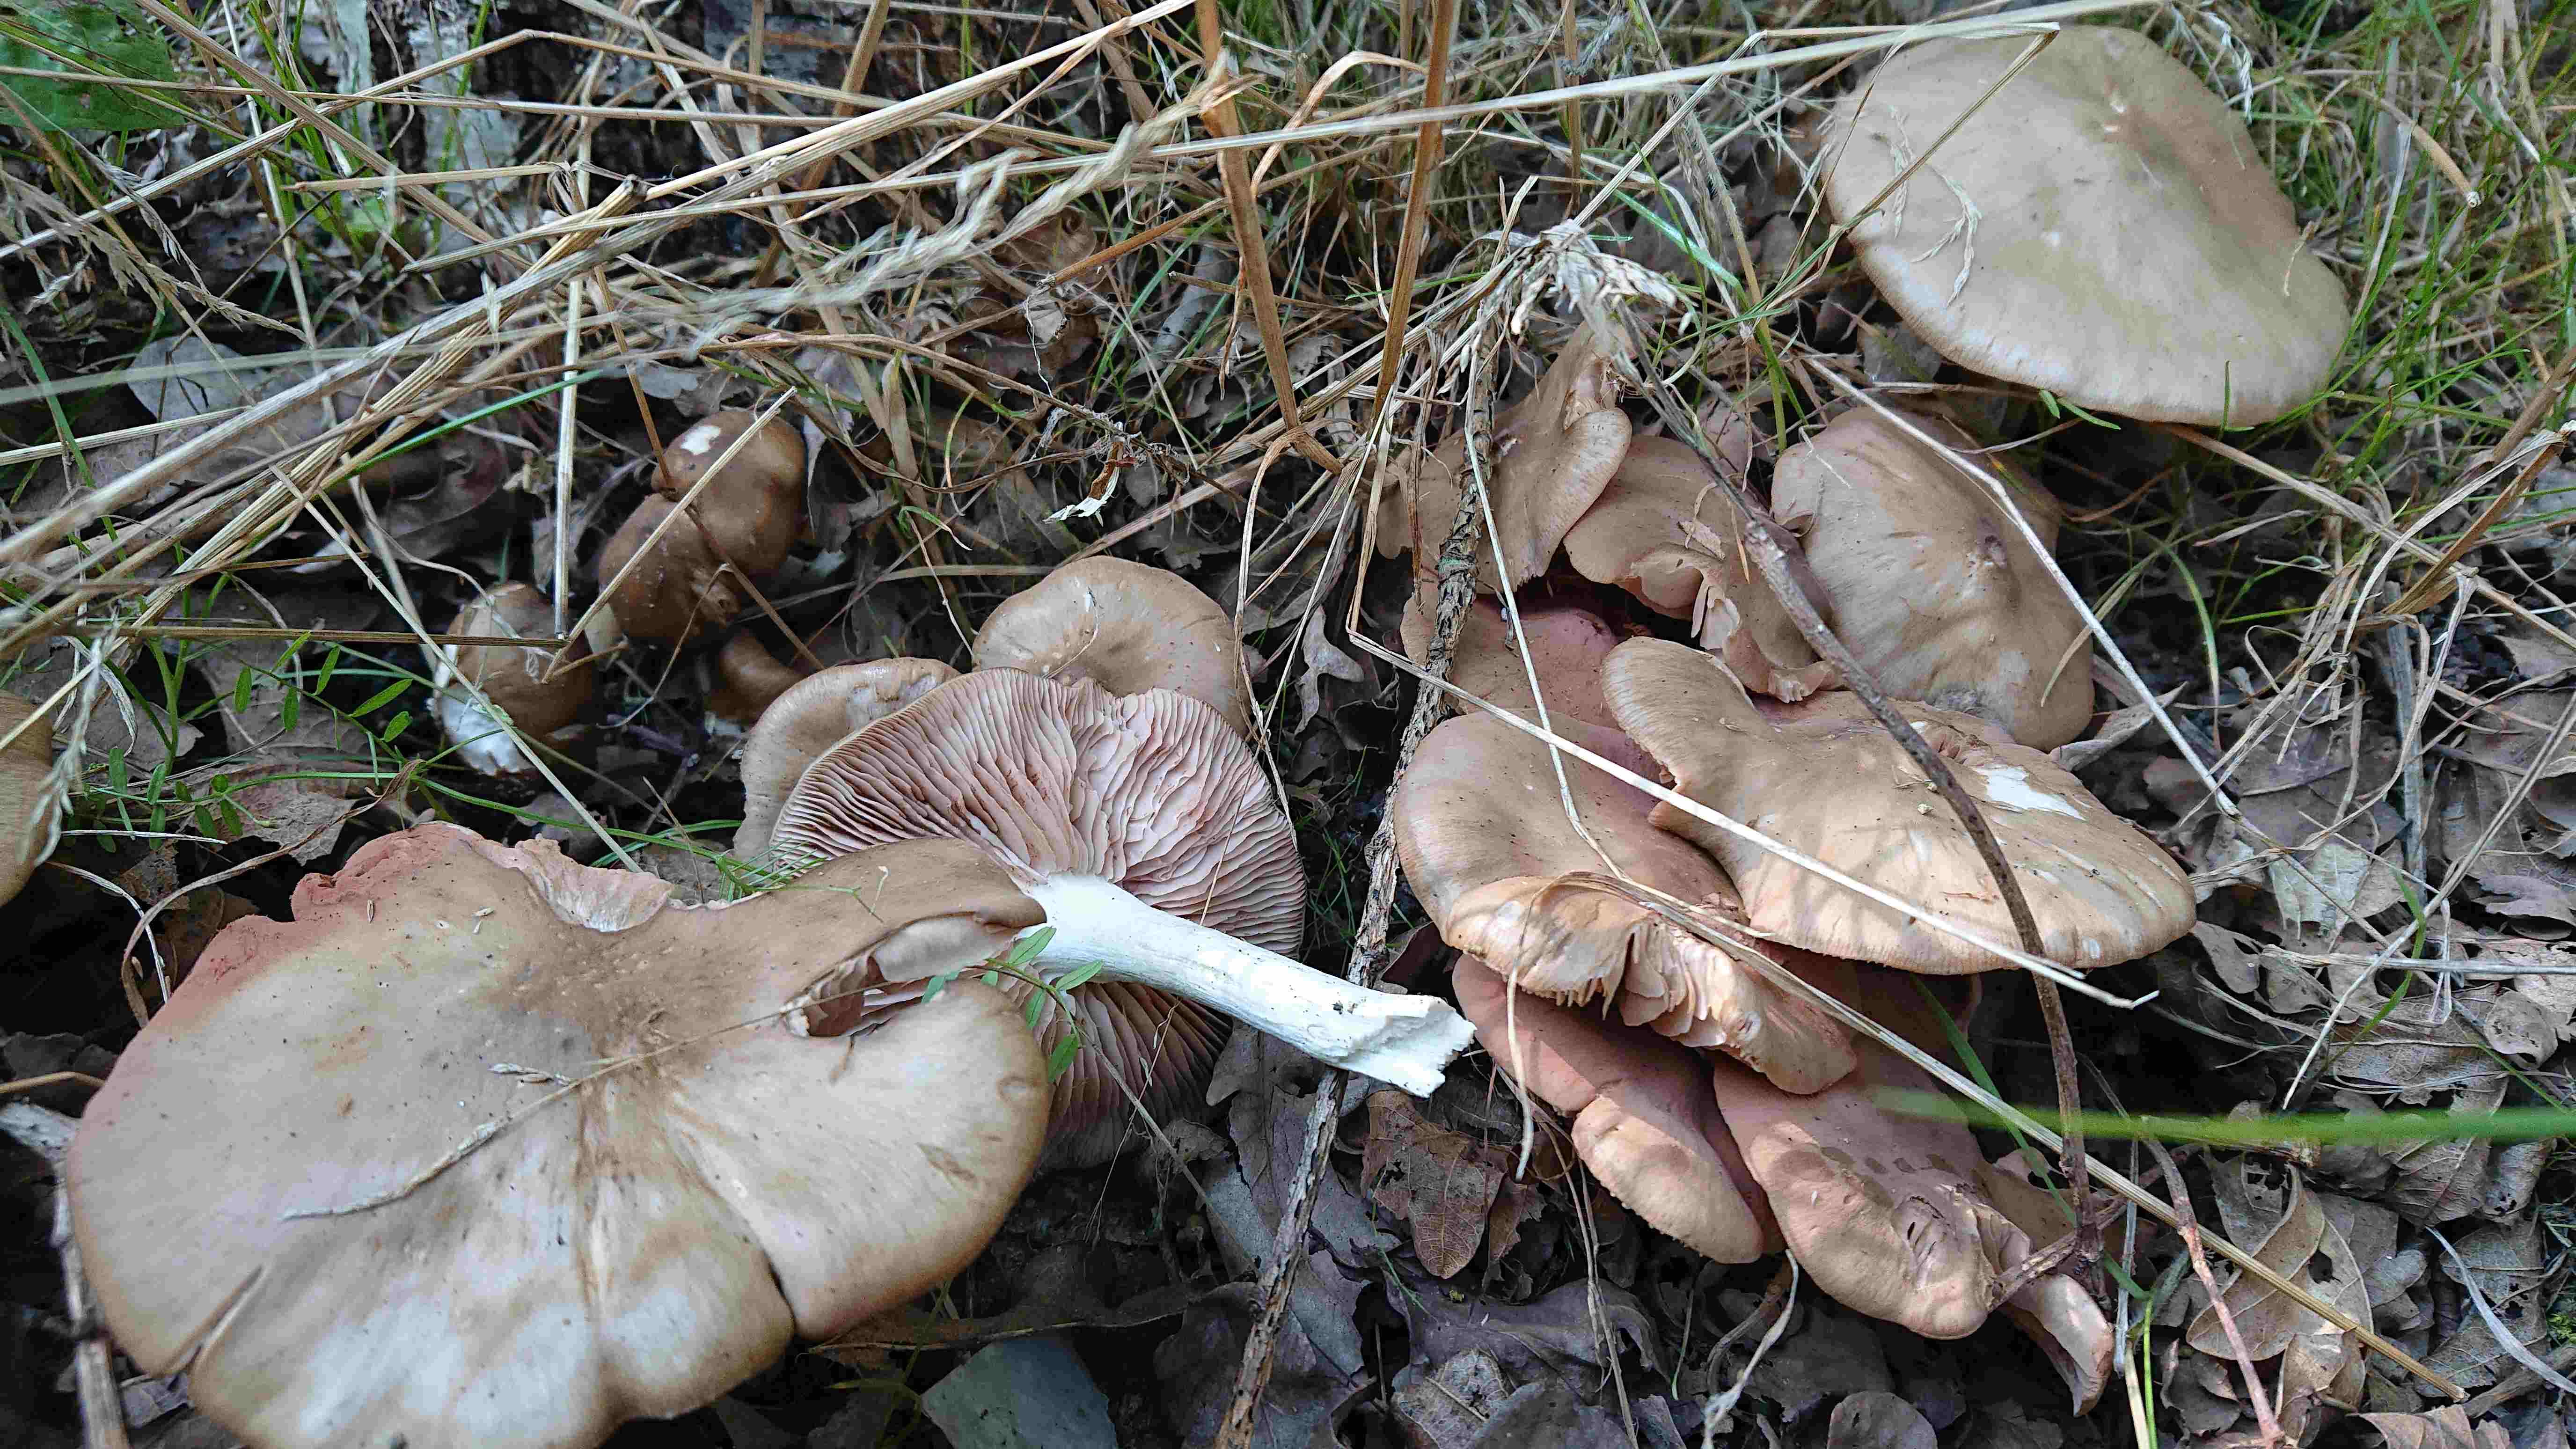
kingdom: Fungi
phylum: Basidiomycota
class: Agaricomycetes
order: Agaricales
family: Entolomataceae
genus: Entoloma
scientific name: Entoloma
